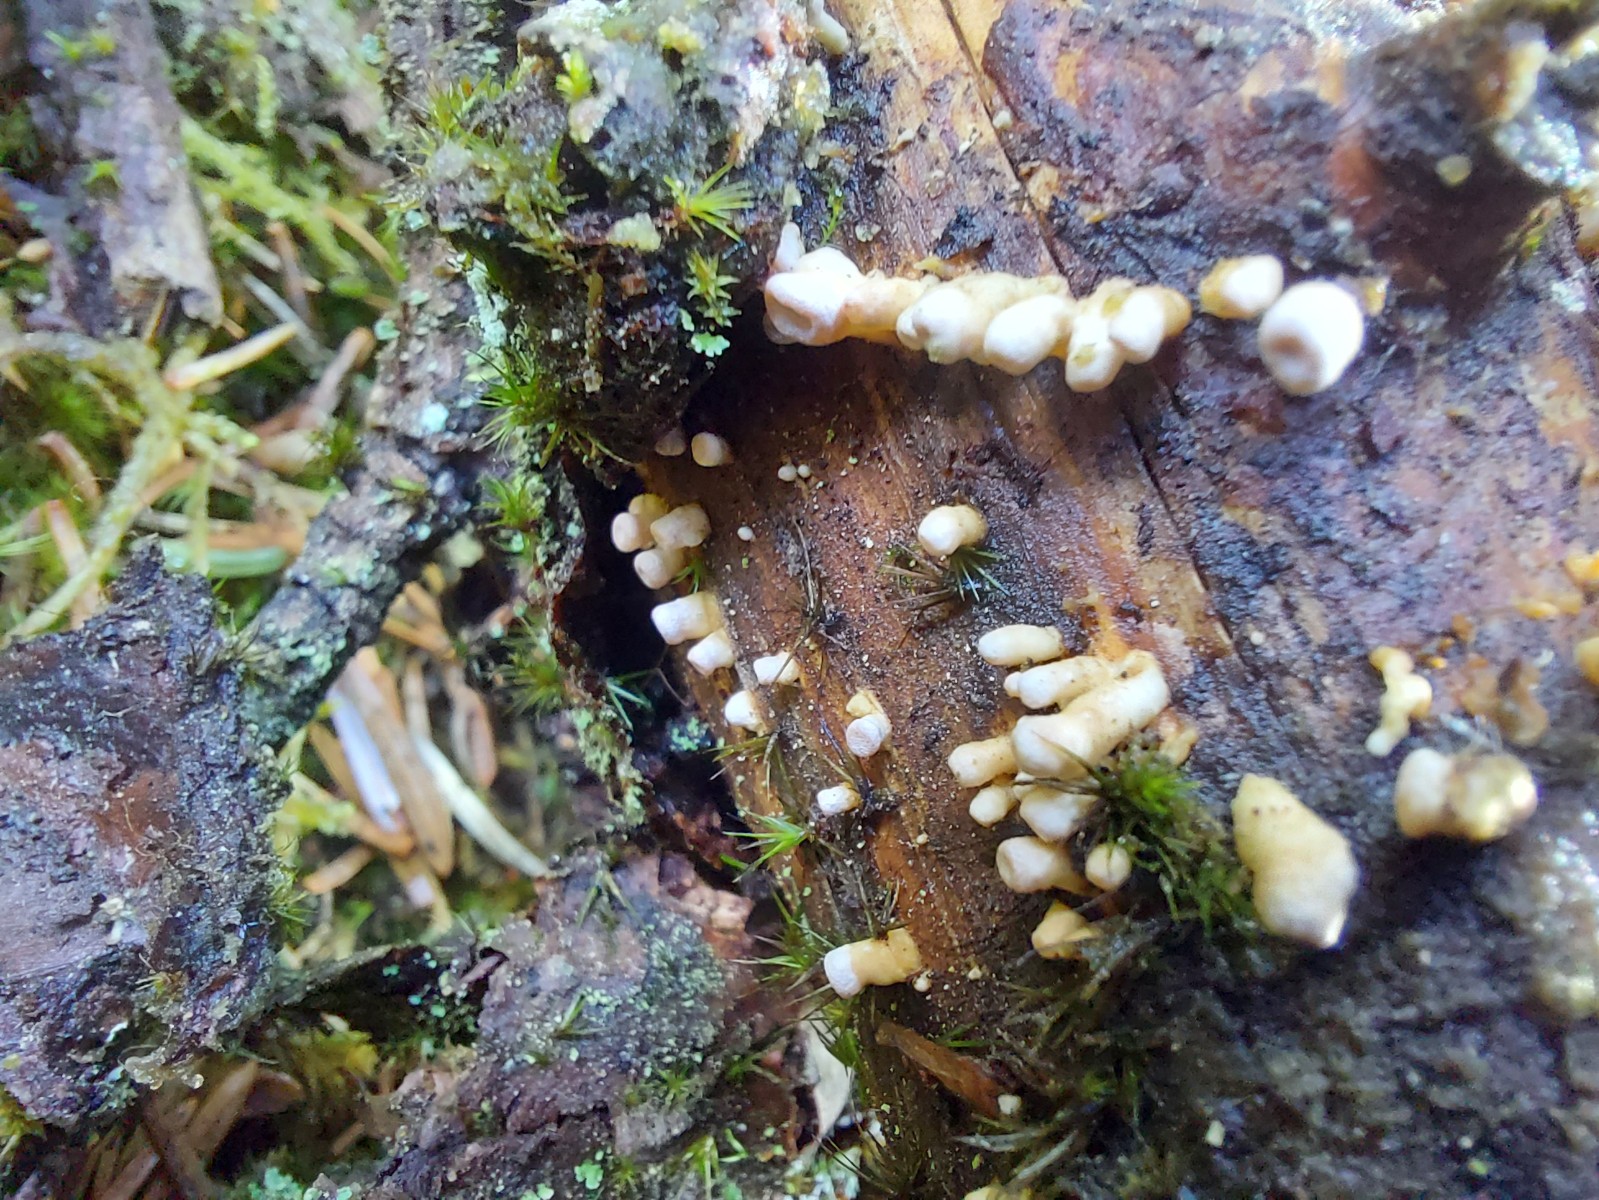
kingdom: Fungi
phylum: Basidiomycota
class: Dacrymycetes
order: Dacrymycetales
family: Dacrymycetaceae
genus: Ditiola
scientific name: Ditiola radicata
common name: rod-tåresvamp
